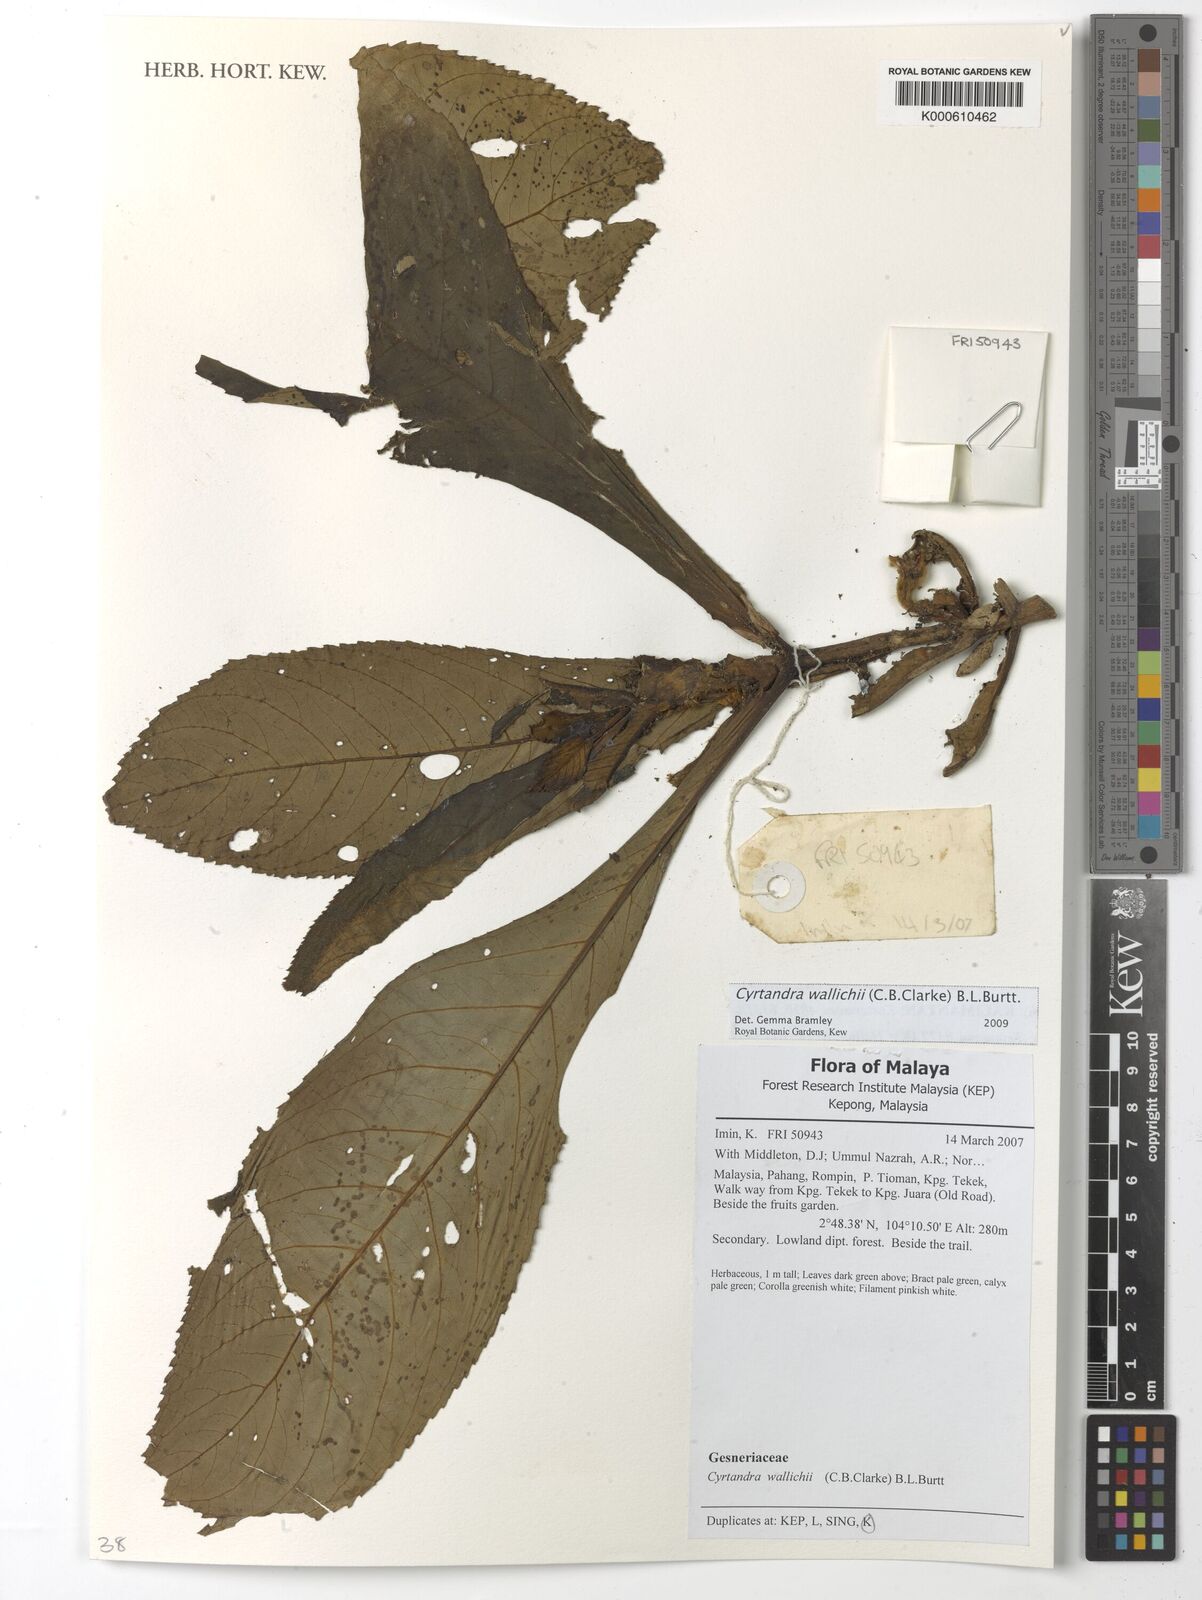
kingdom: Plantae
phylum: Tracheophyta
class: Magnoliopsida
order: Lamiales
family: Gesneriaceae
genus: Cyrtandra
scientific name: Cyrtandra wallichii
